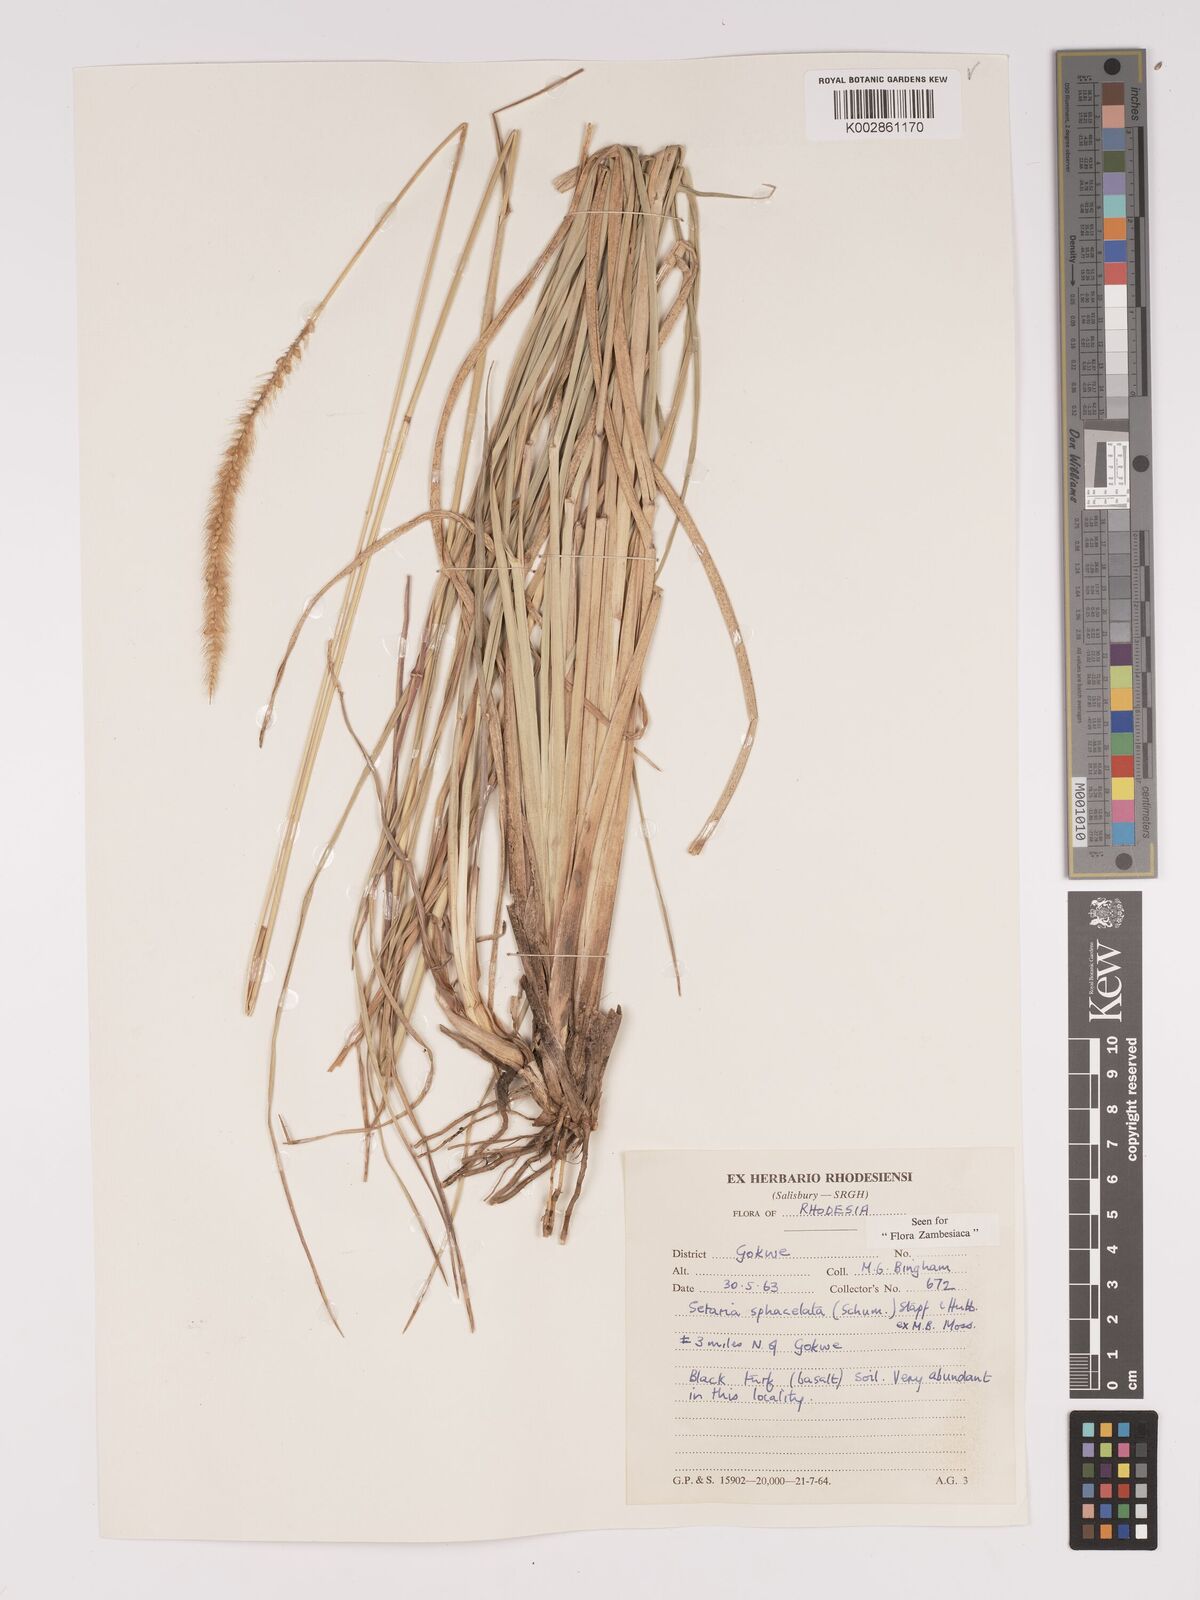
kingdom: Plantae
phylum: Tracheophyta
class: Liliopsida
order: Poales
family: Poaceae
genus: Setaria
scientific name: Setaria sphacelata
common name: African bristlegrass
